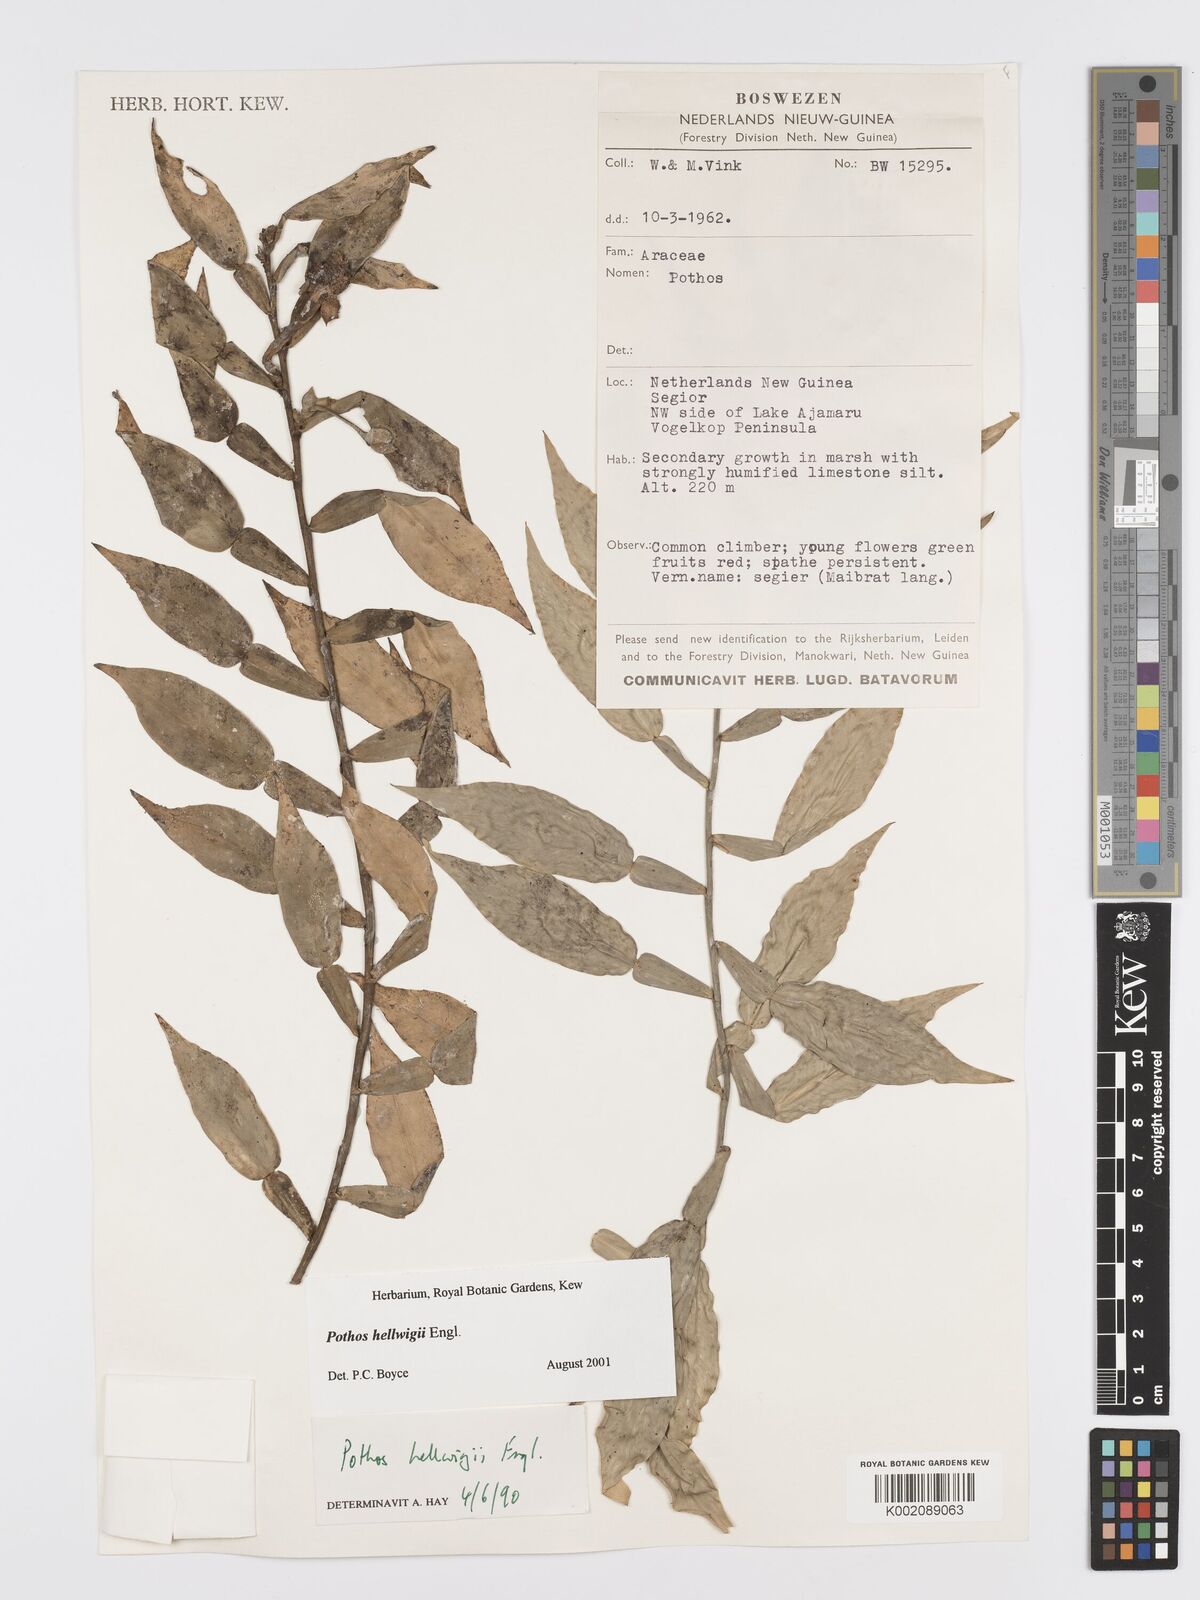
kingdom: Plantae
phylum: Tracheophyta
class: Liliopsida
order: Alismatales
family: Araceae
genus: Pothos
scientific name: Pothos hellwigii
